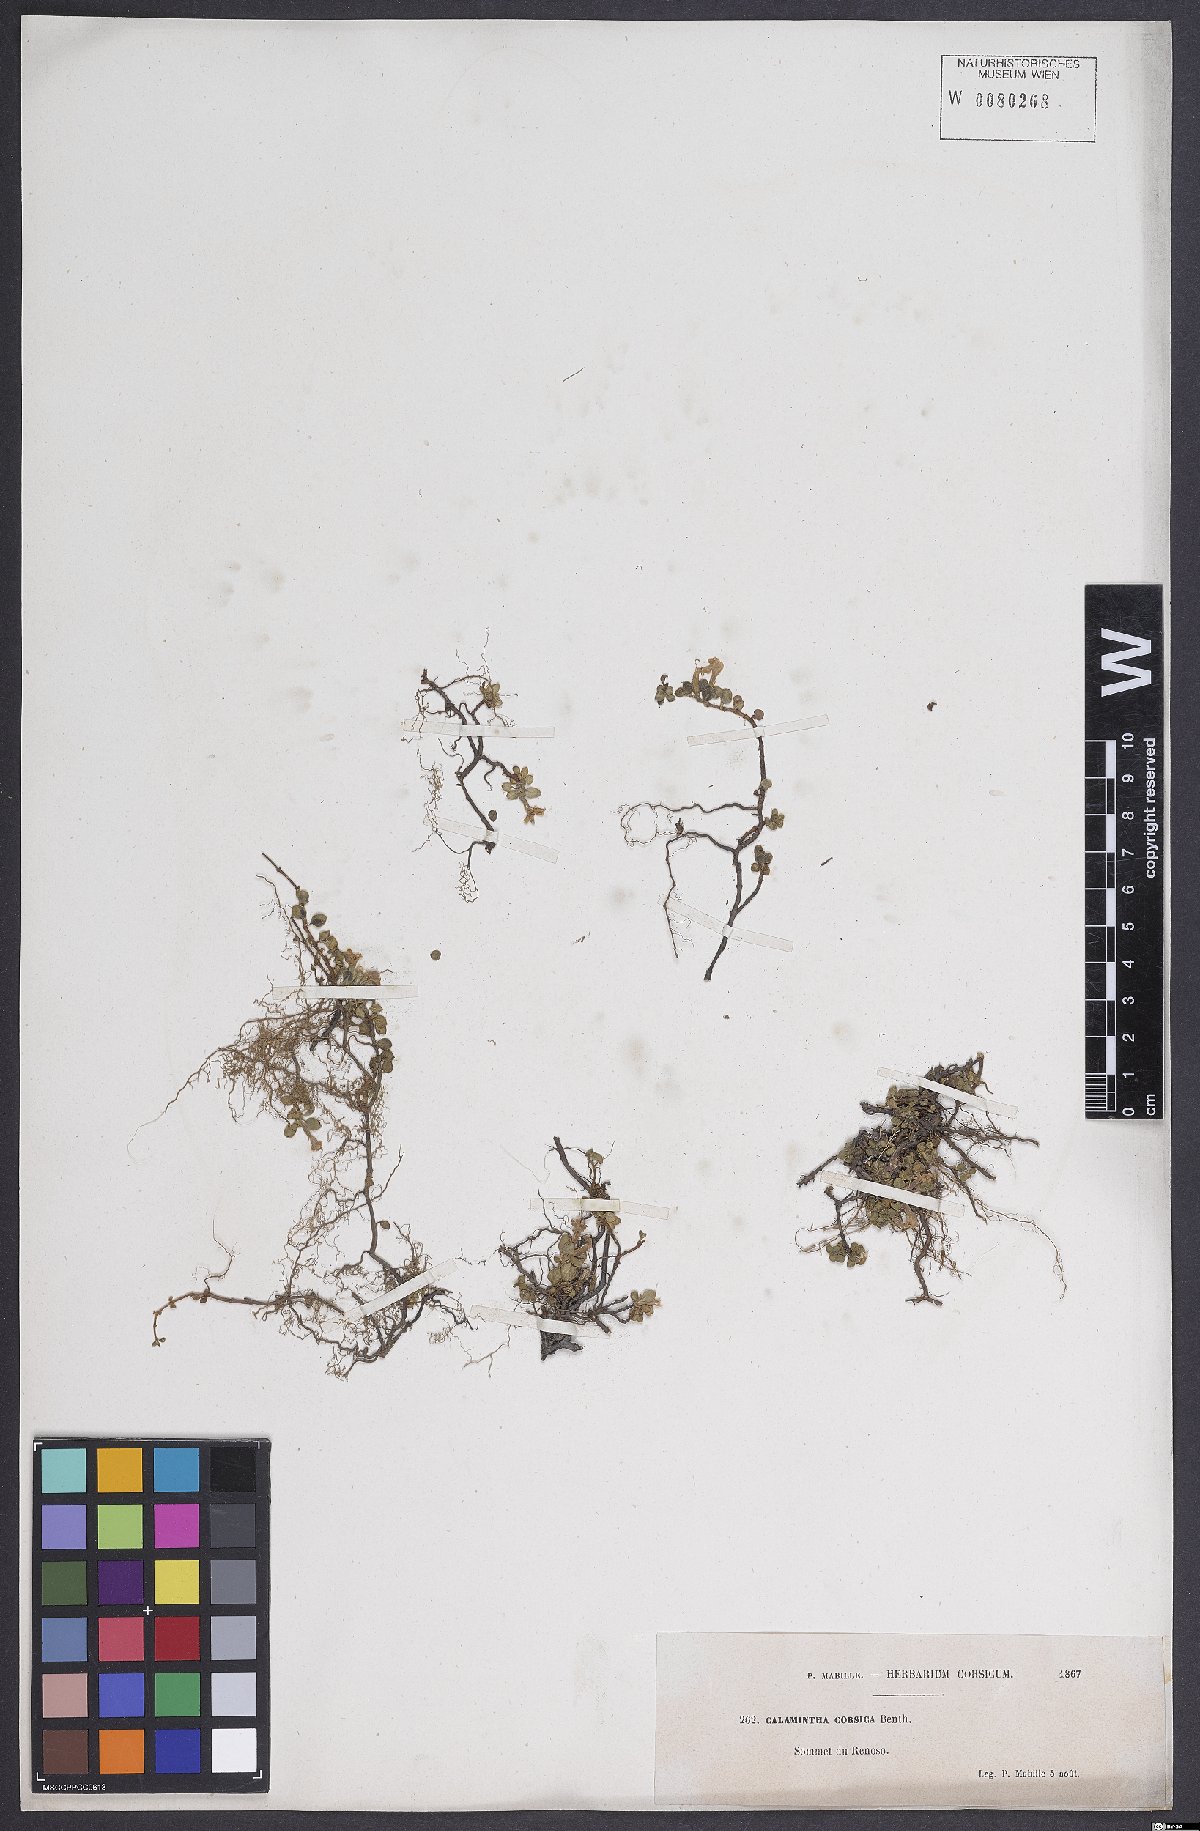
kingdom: Plantae
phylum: Tracheophyta
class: Magnoliopsida
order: Lamiales
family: Lamiaceae
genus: Calamintha
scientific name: Calamintha
